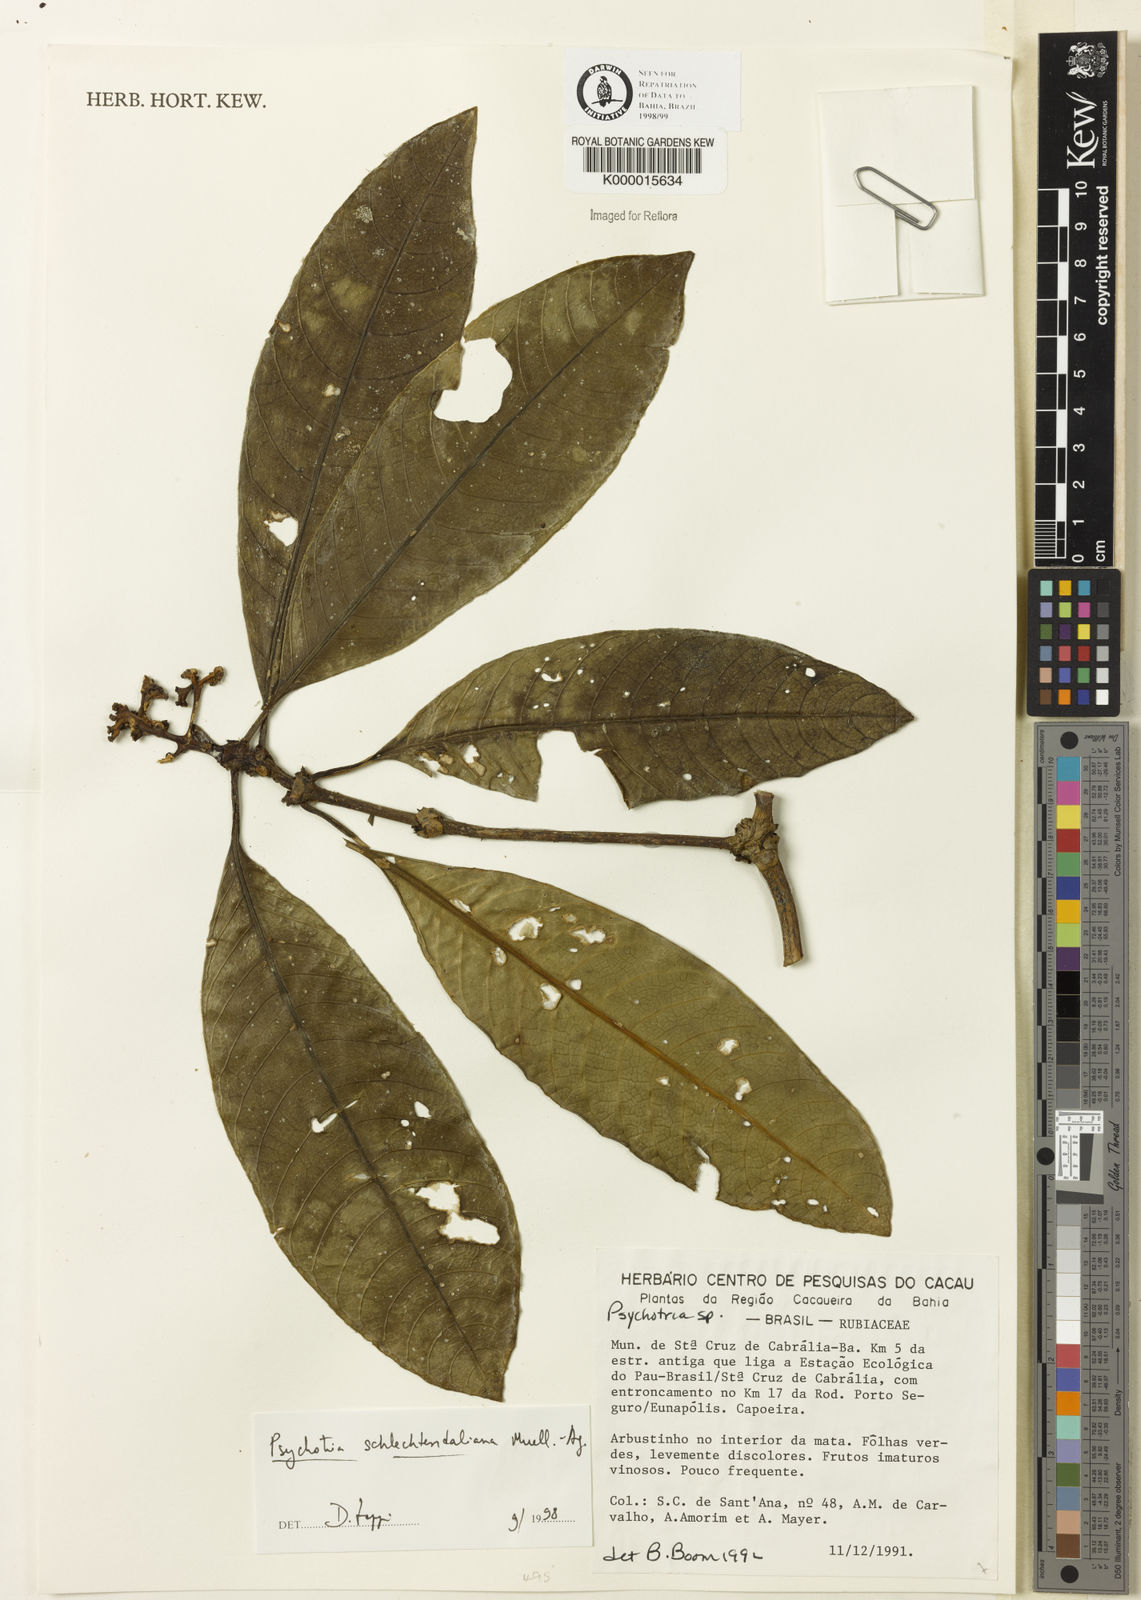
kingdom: Plantae
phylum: Tracheophyta
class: Magnoliopsida
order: Gentianales
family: Rubiaceae
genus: Palicourea
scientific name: Palicourea divaricata
